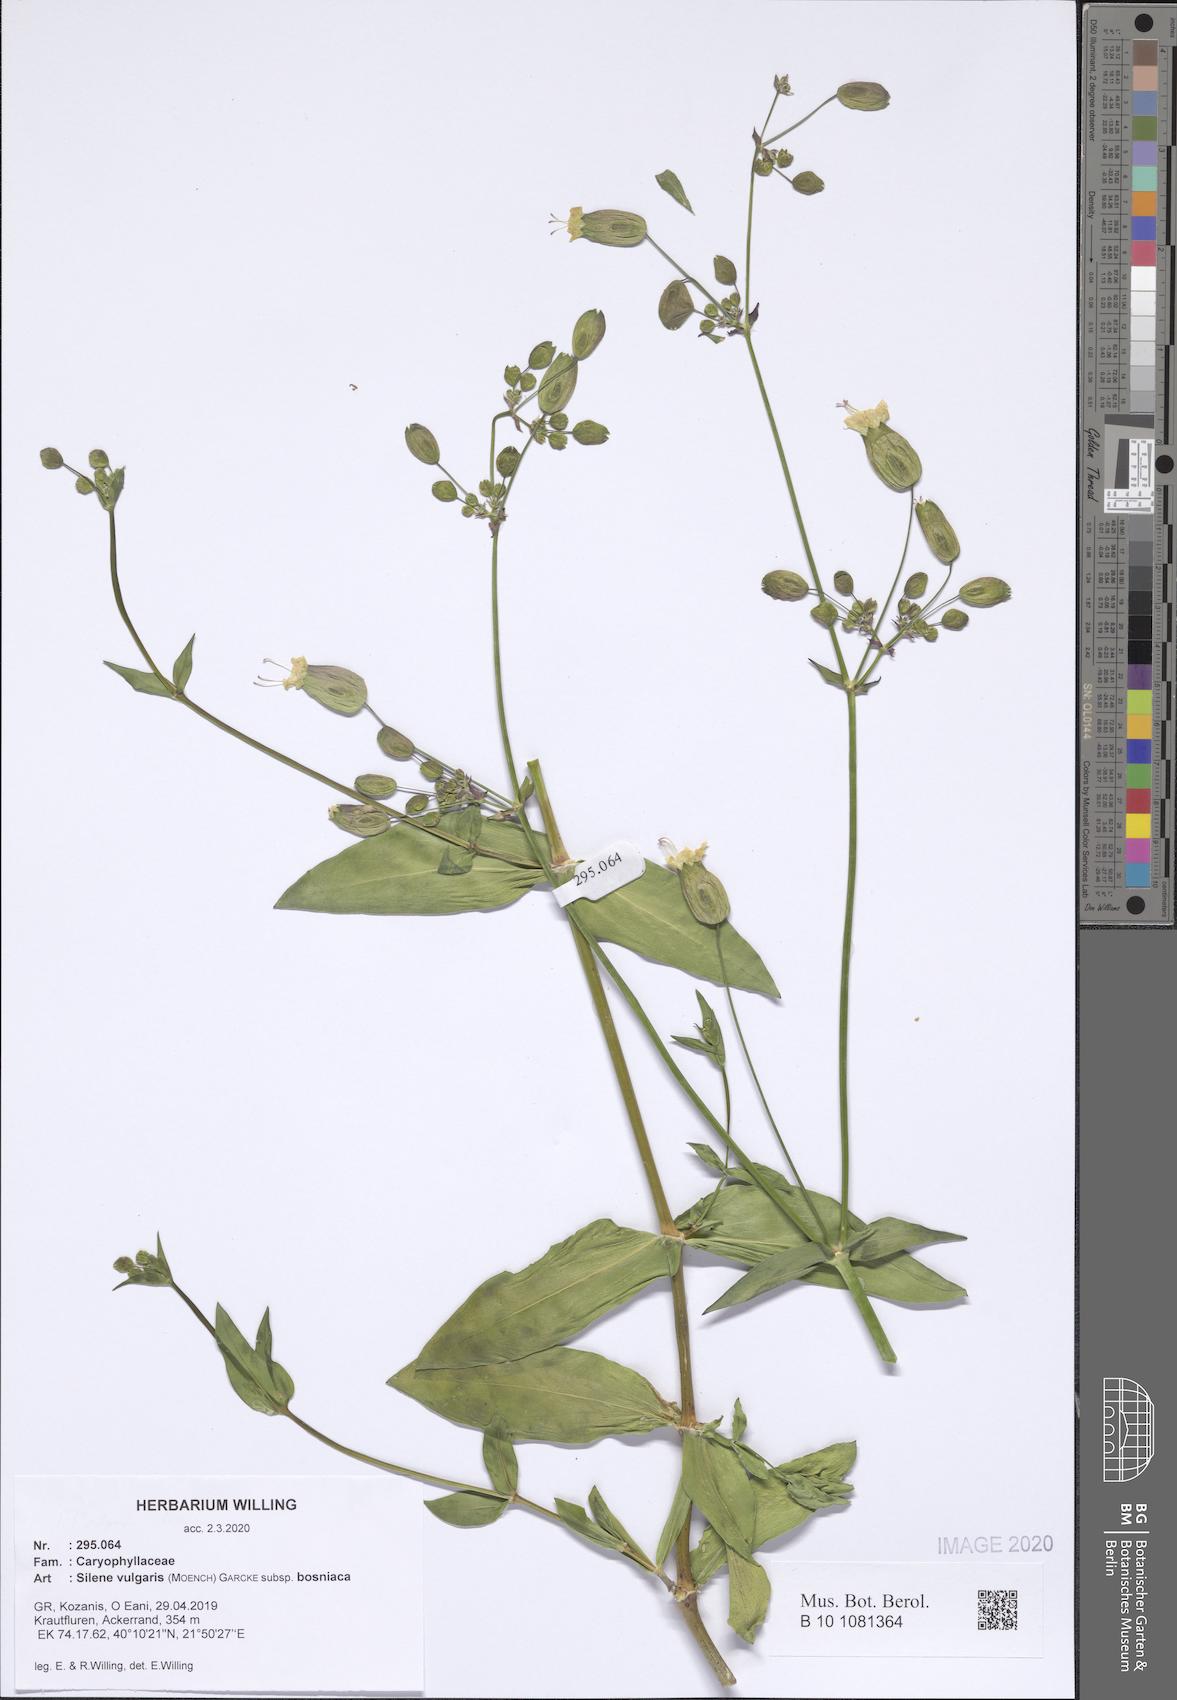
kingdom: Plantae
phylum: Tracheophyta
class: Magnoliopsida
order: Caryophyllales
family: Caryophyllaceae
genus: Silene
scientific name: Silene vulgaris
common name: Bladder campion
